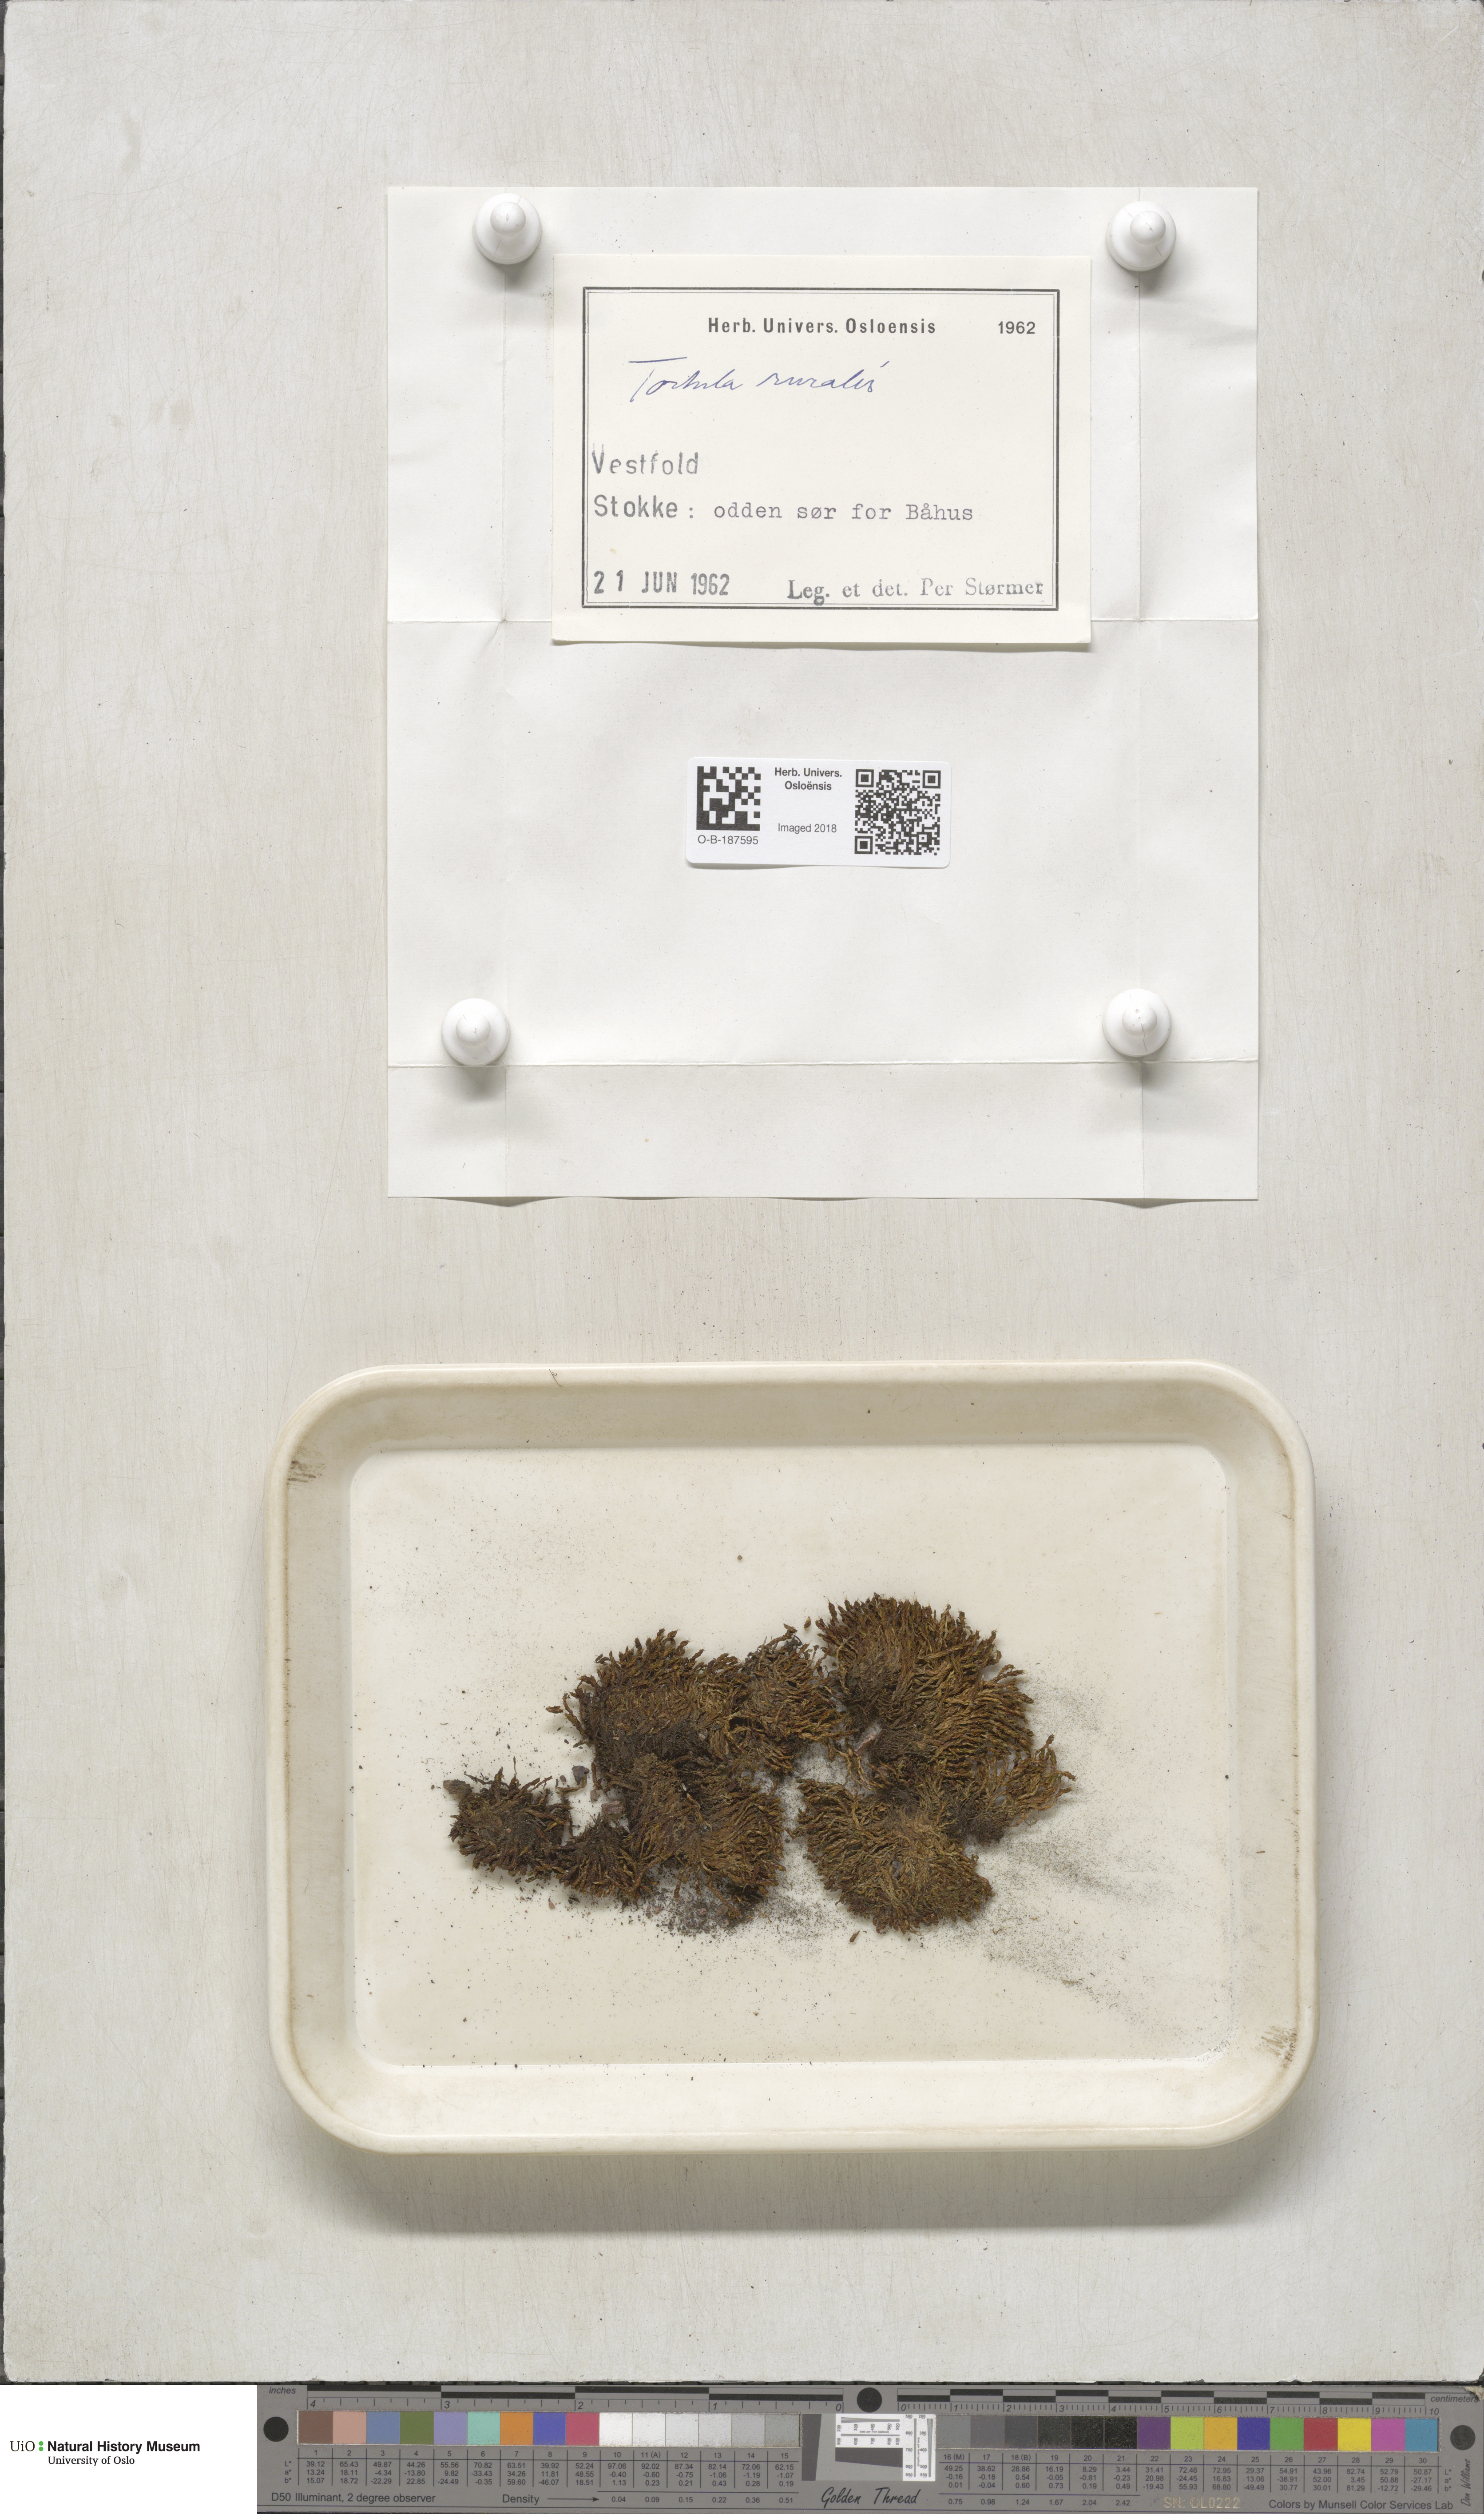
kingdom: Plantae
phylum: Bryophyta
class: Bryopsida
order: Pottiales
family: Pottiaceae
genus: Syntrichia
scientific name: Syntrichia ruralis
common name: Sidewalk screw moss
